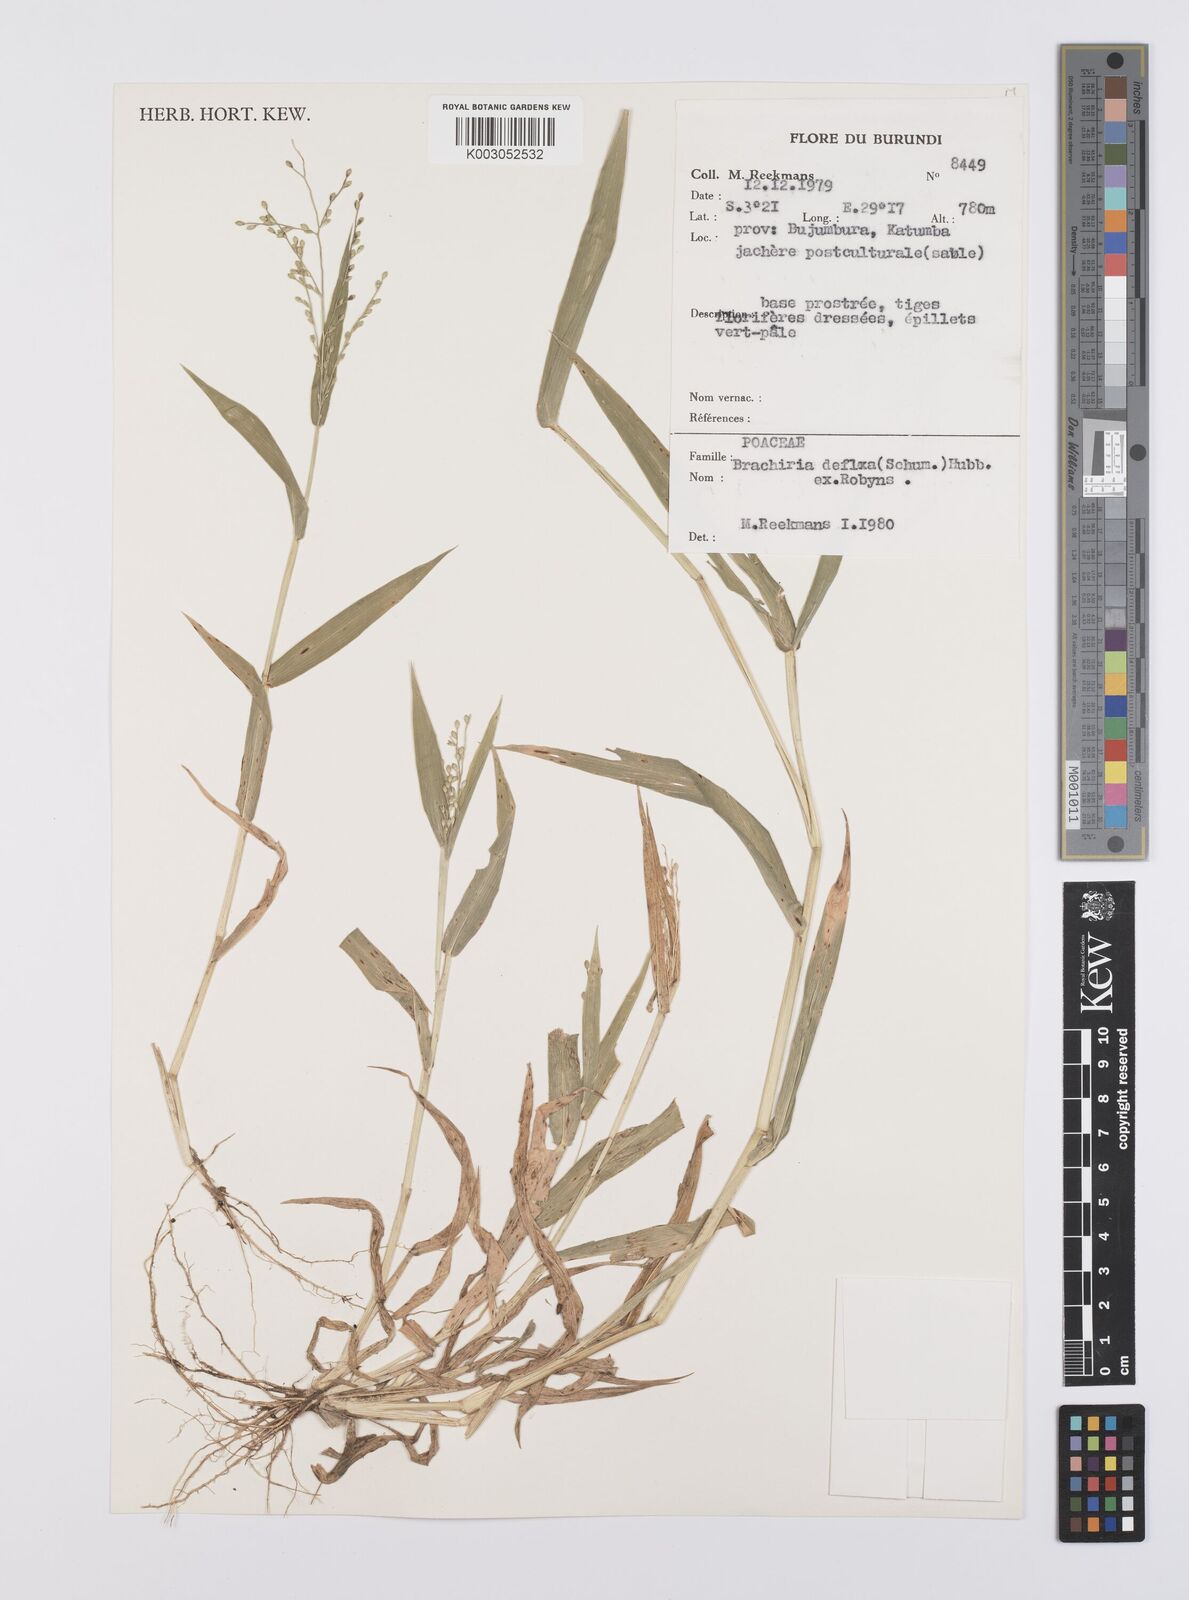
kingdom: Plantae
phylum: Tracheophyta
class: Liliopsida
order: Poales
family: Poaceae
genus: Urochloa
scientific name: Urochloa deflexa
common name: Guinea millet
